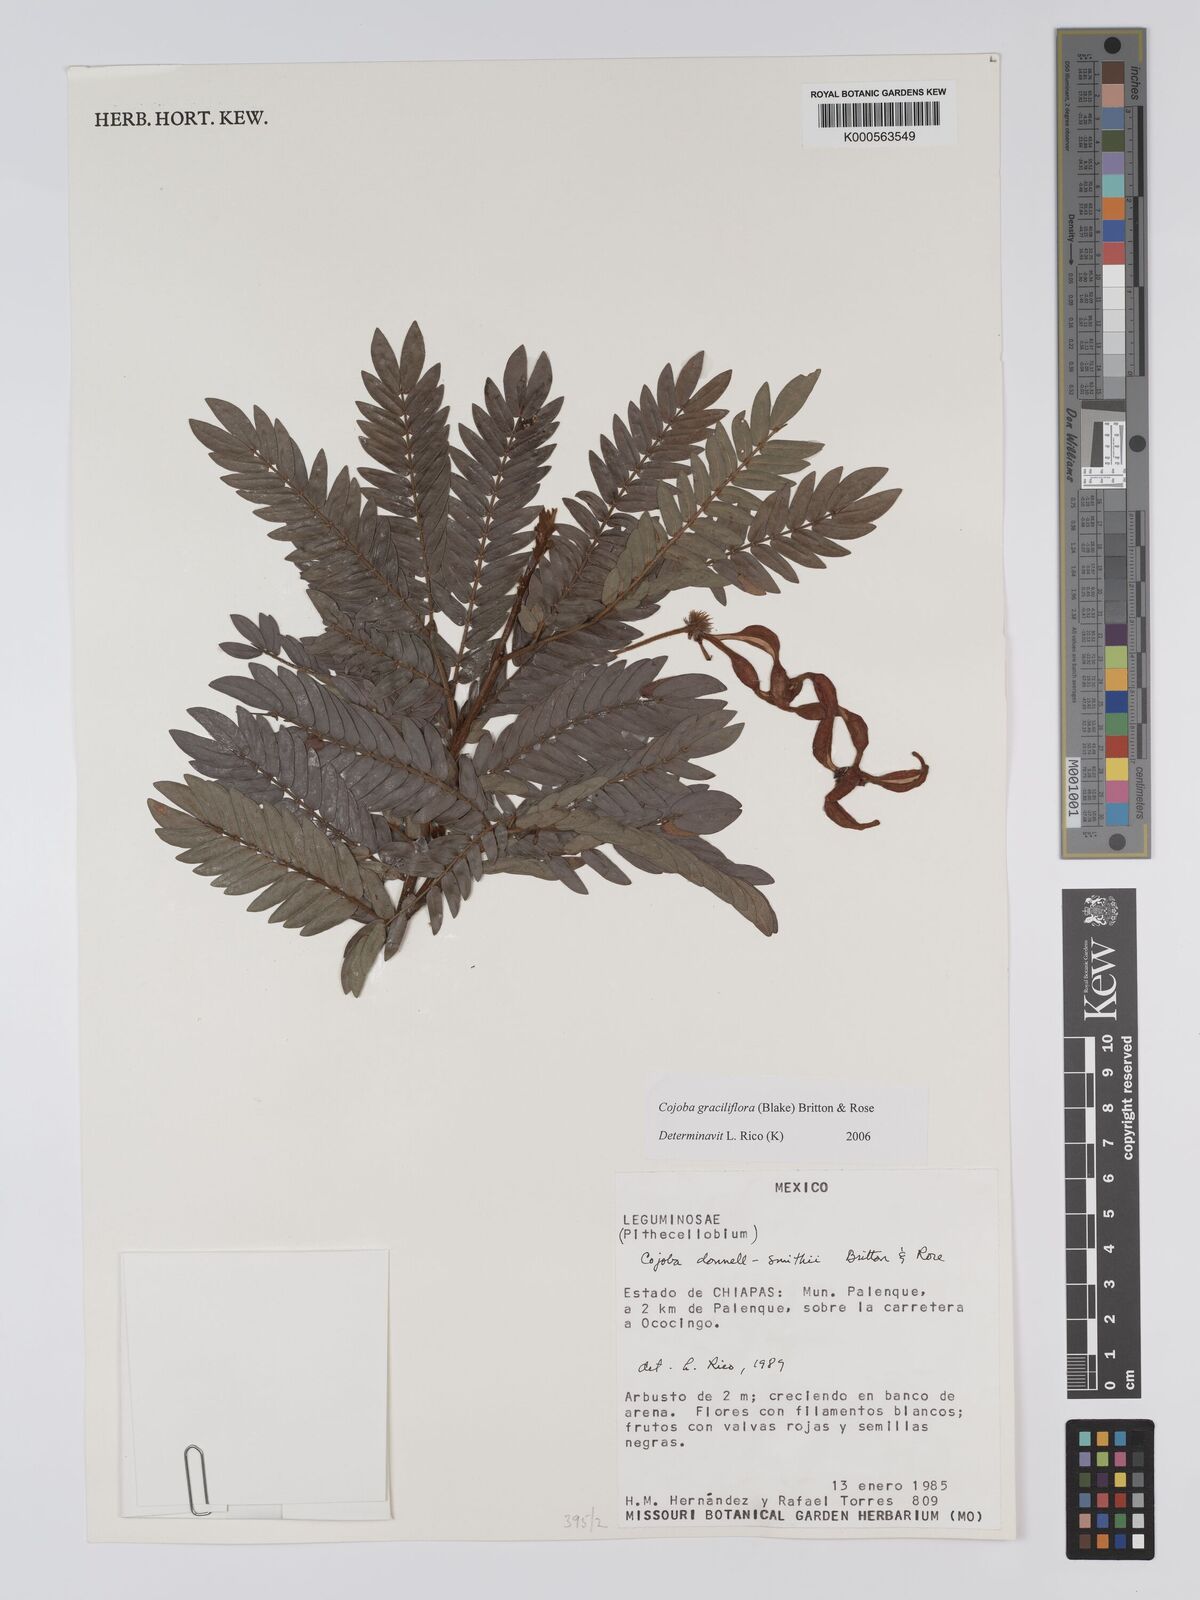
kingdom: Plantae
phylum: Tracheophyta
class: Magnoliopsida
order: Fabales
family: Fabaceae
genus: Cojoba
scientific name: Cojoba graciliflora
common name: Guadeloupe blackbead
